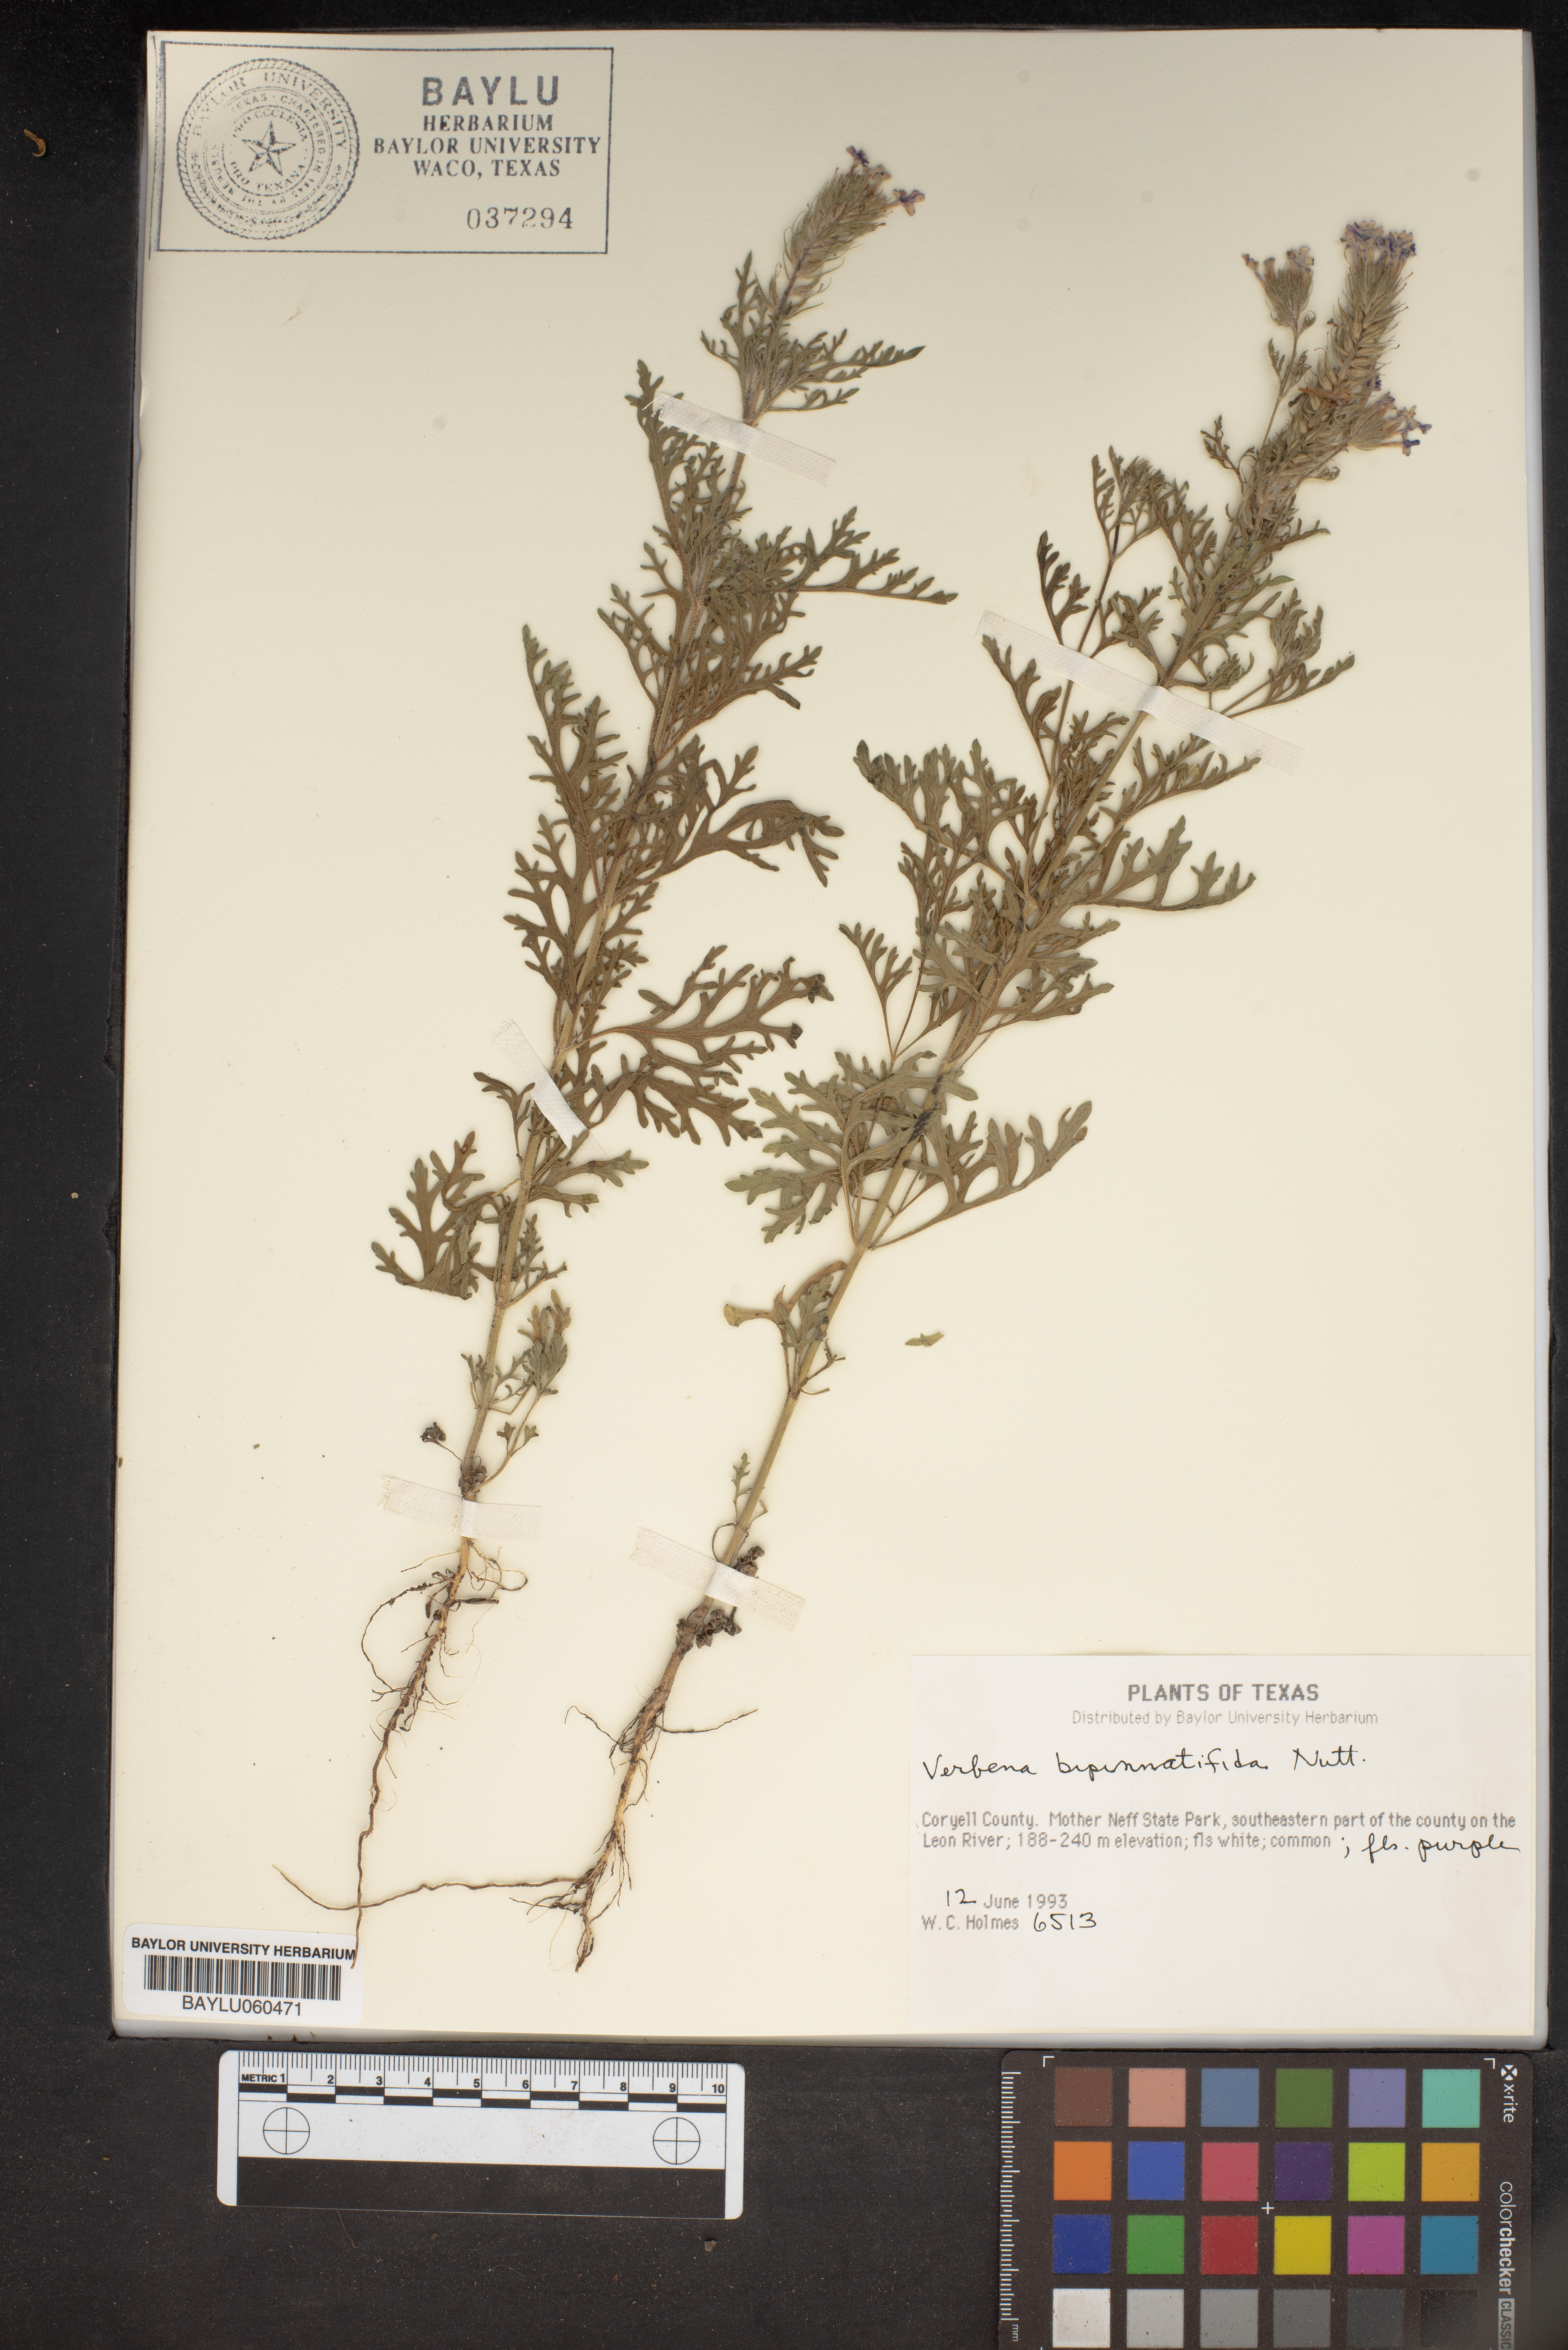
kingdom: Plantae
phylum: Tracheophyta
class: Magnoliopsida
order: Lamiales
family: Verbenaceae
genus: Verbena
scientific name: Verbena bipinnatifida
